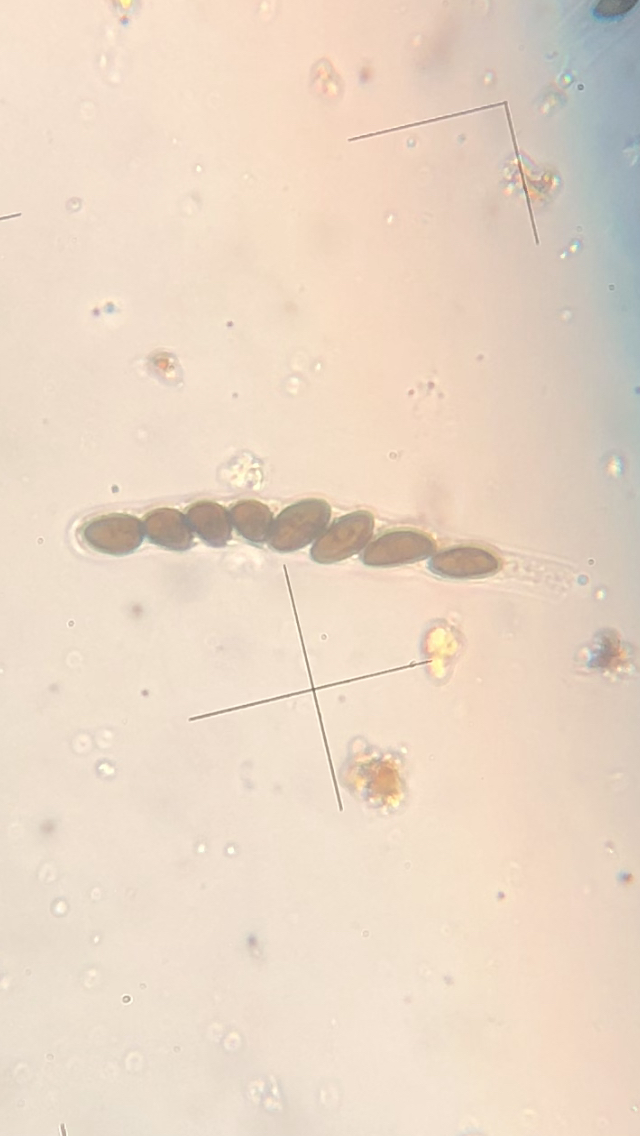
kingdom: Fungi
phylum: Ascomycota
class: Sordariomycetes
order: Xylariales
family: Hypoxylaceae
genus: Hypoxylon
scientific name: Hypoxylon fuscum
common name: kegleformet kulbær
